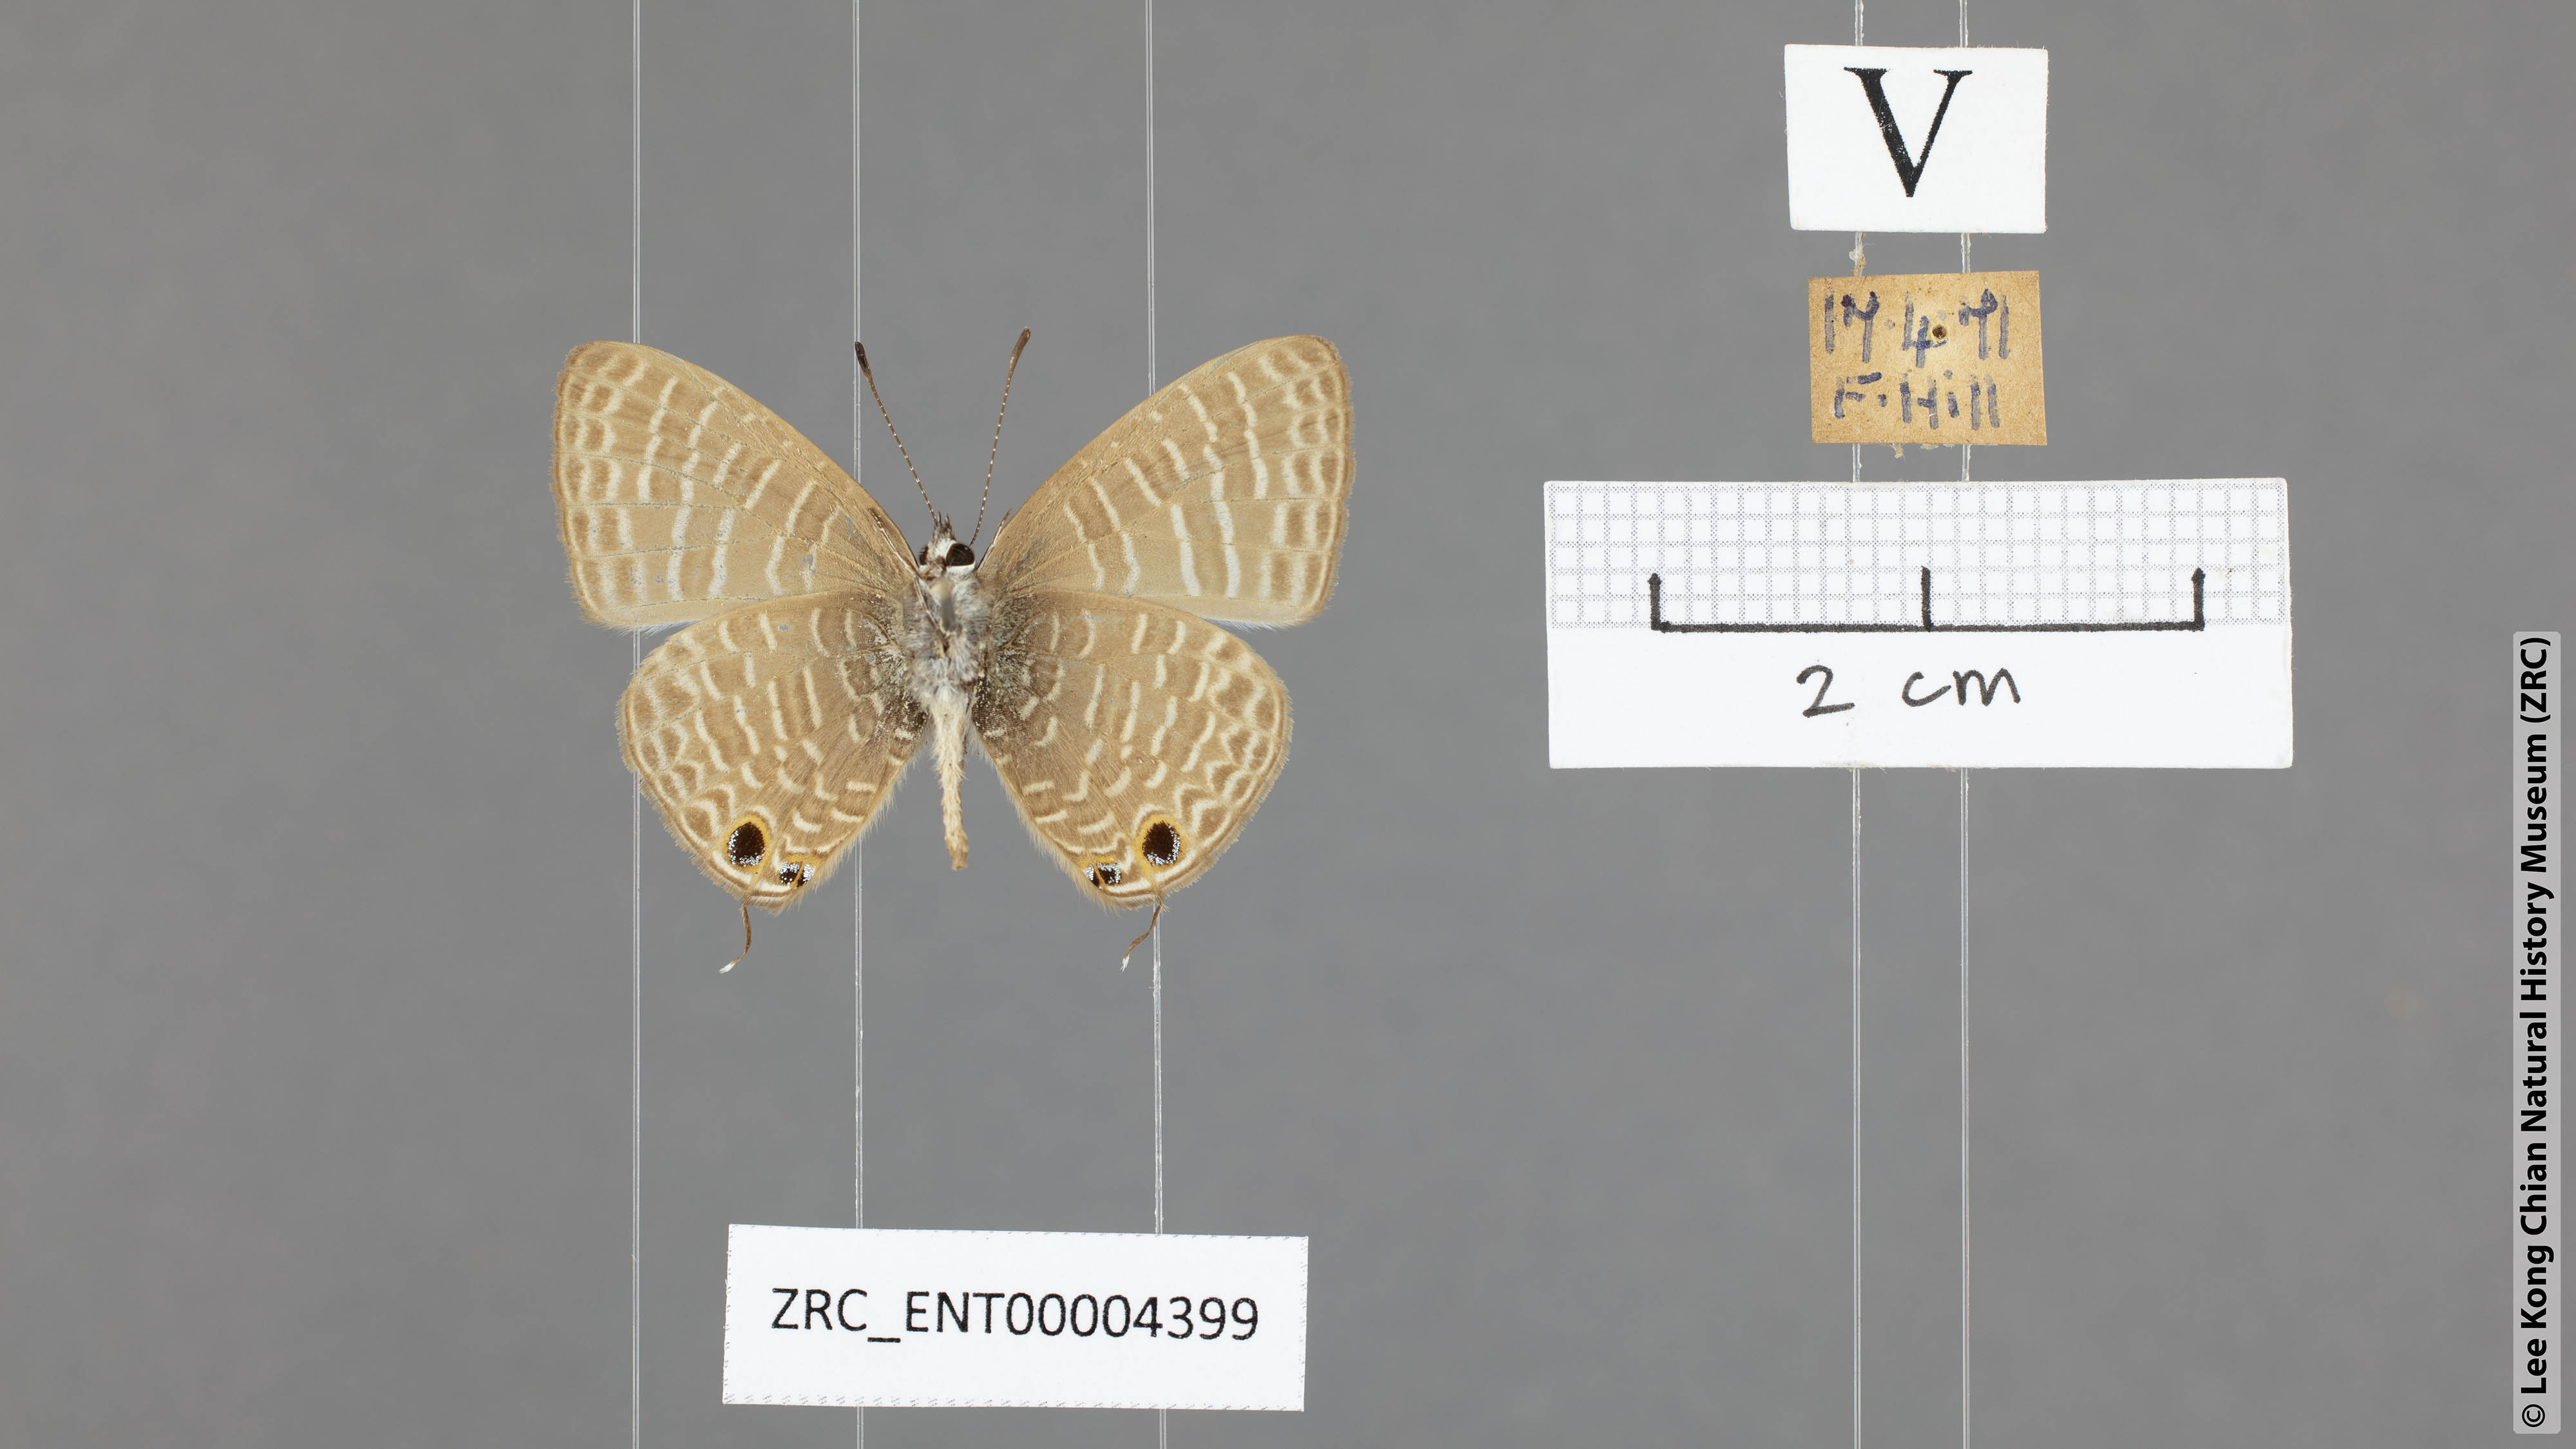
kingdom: Animalia
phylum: Arthropoda
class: Insecta
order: Lepidoptera
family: Lycaenidae
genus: Nacaduba
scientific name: Nacaduba kurava
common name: Transparent 6-line blue
